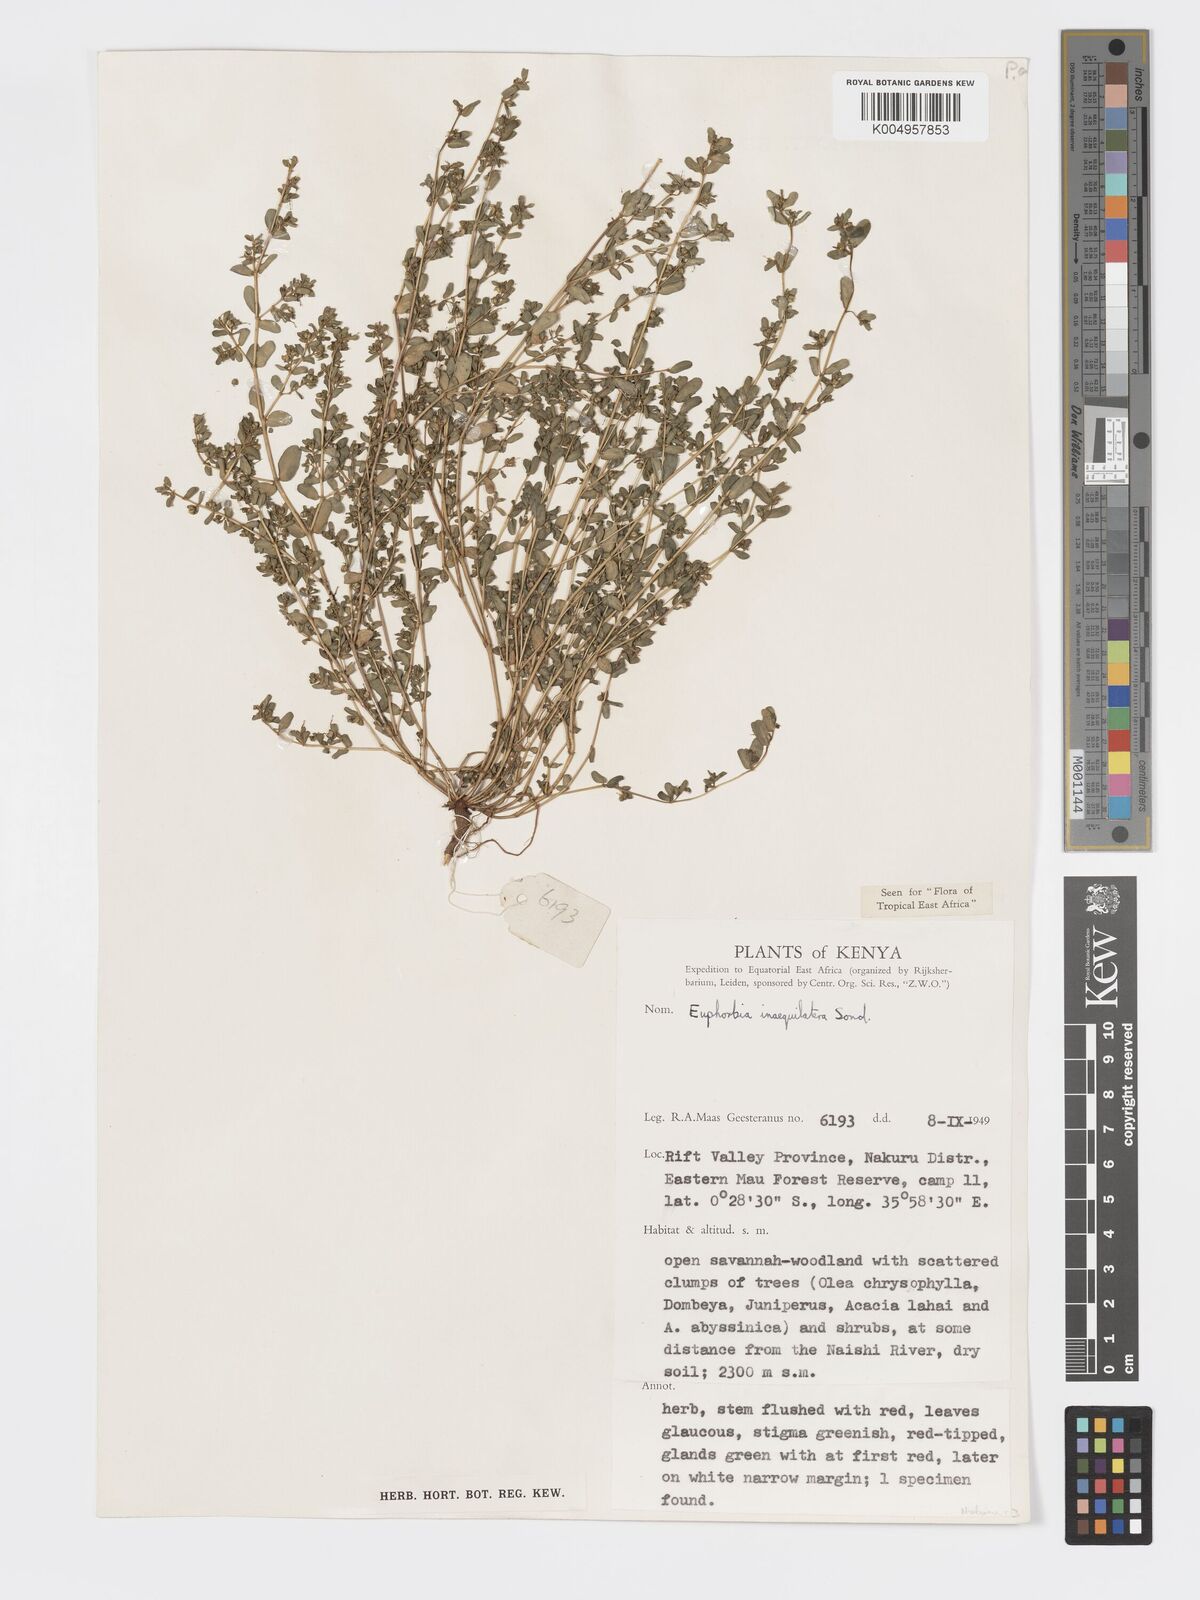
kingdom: Plantae
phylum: Tracheophyta
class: Magnoliopsida
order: Malpighiales
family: Euphorbiaceae
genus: Euphorbia
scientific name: Euphorbia inaequilatera
